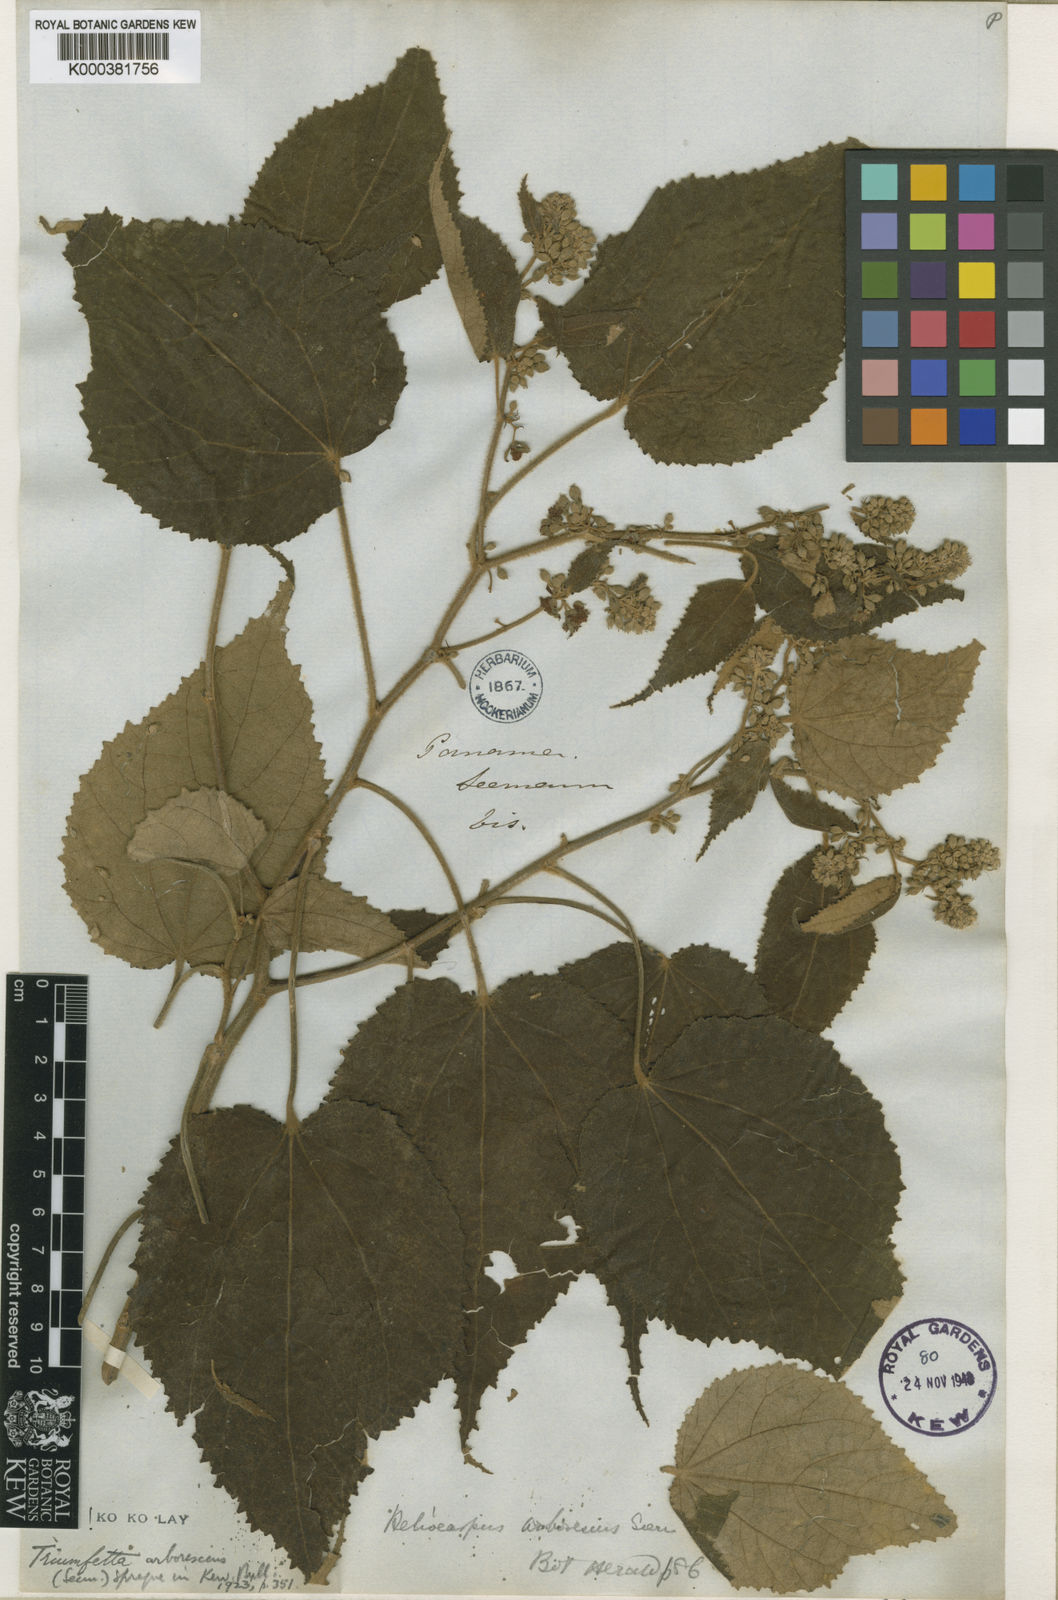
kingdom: Plantae
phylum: Tracheophyta
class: Magnoliopsida
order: Malvales
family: Malvaceae
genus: Triumfetta
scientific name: Triumfetta arborescens
